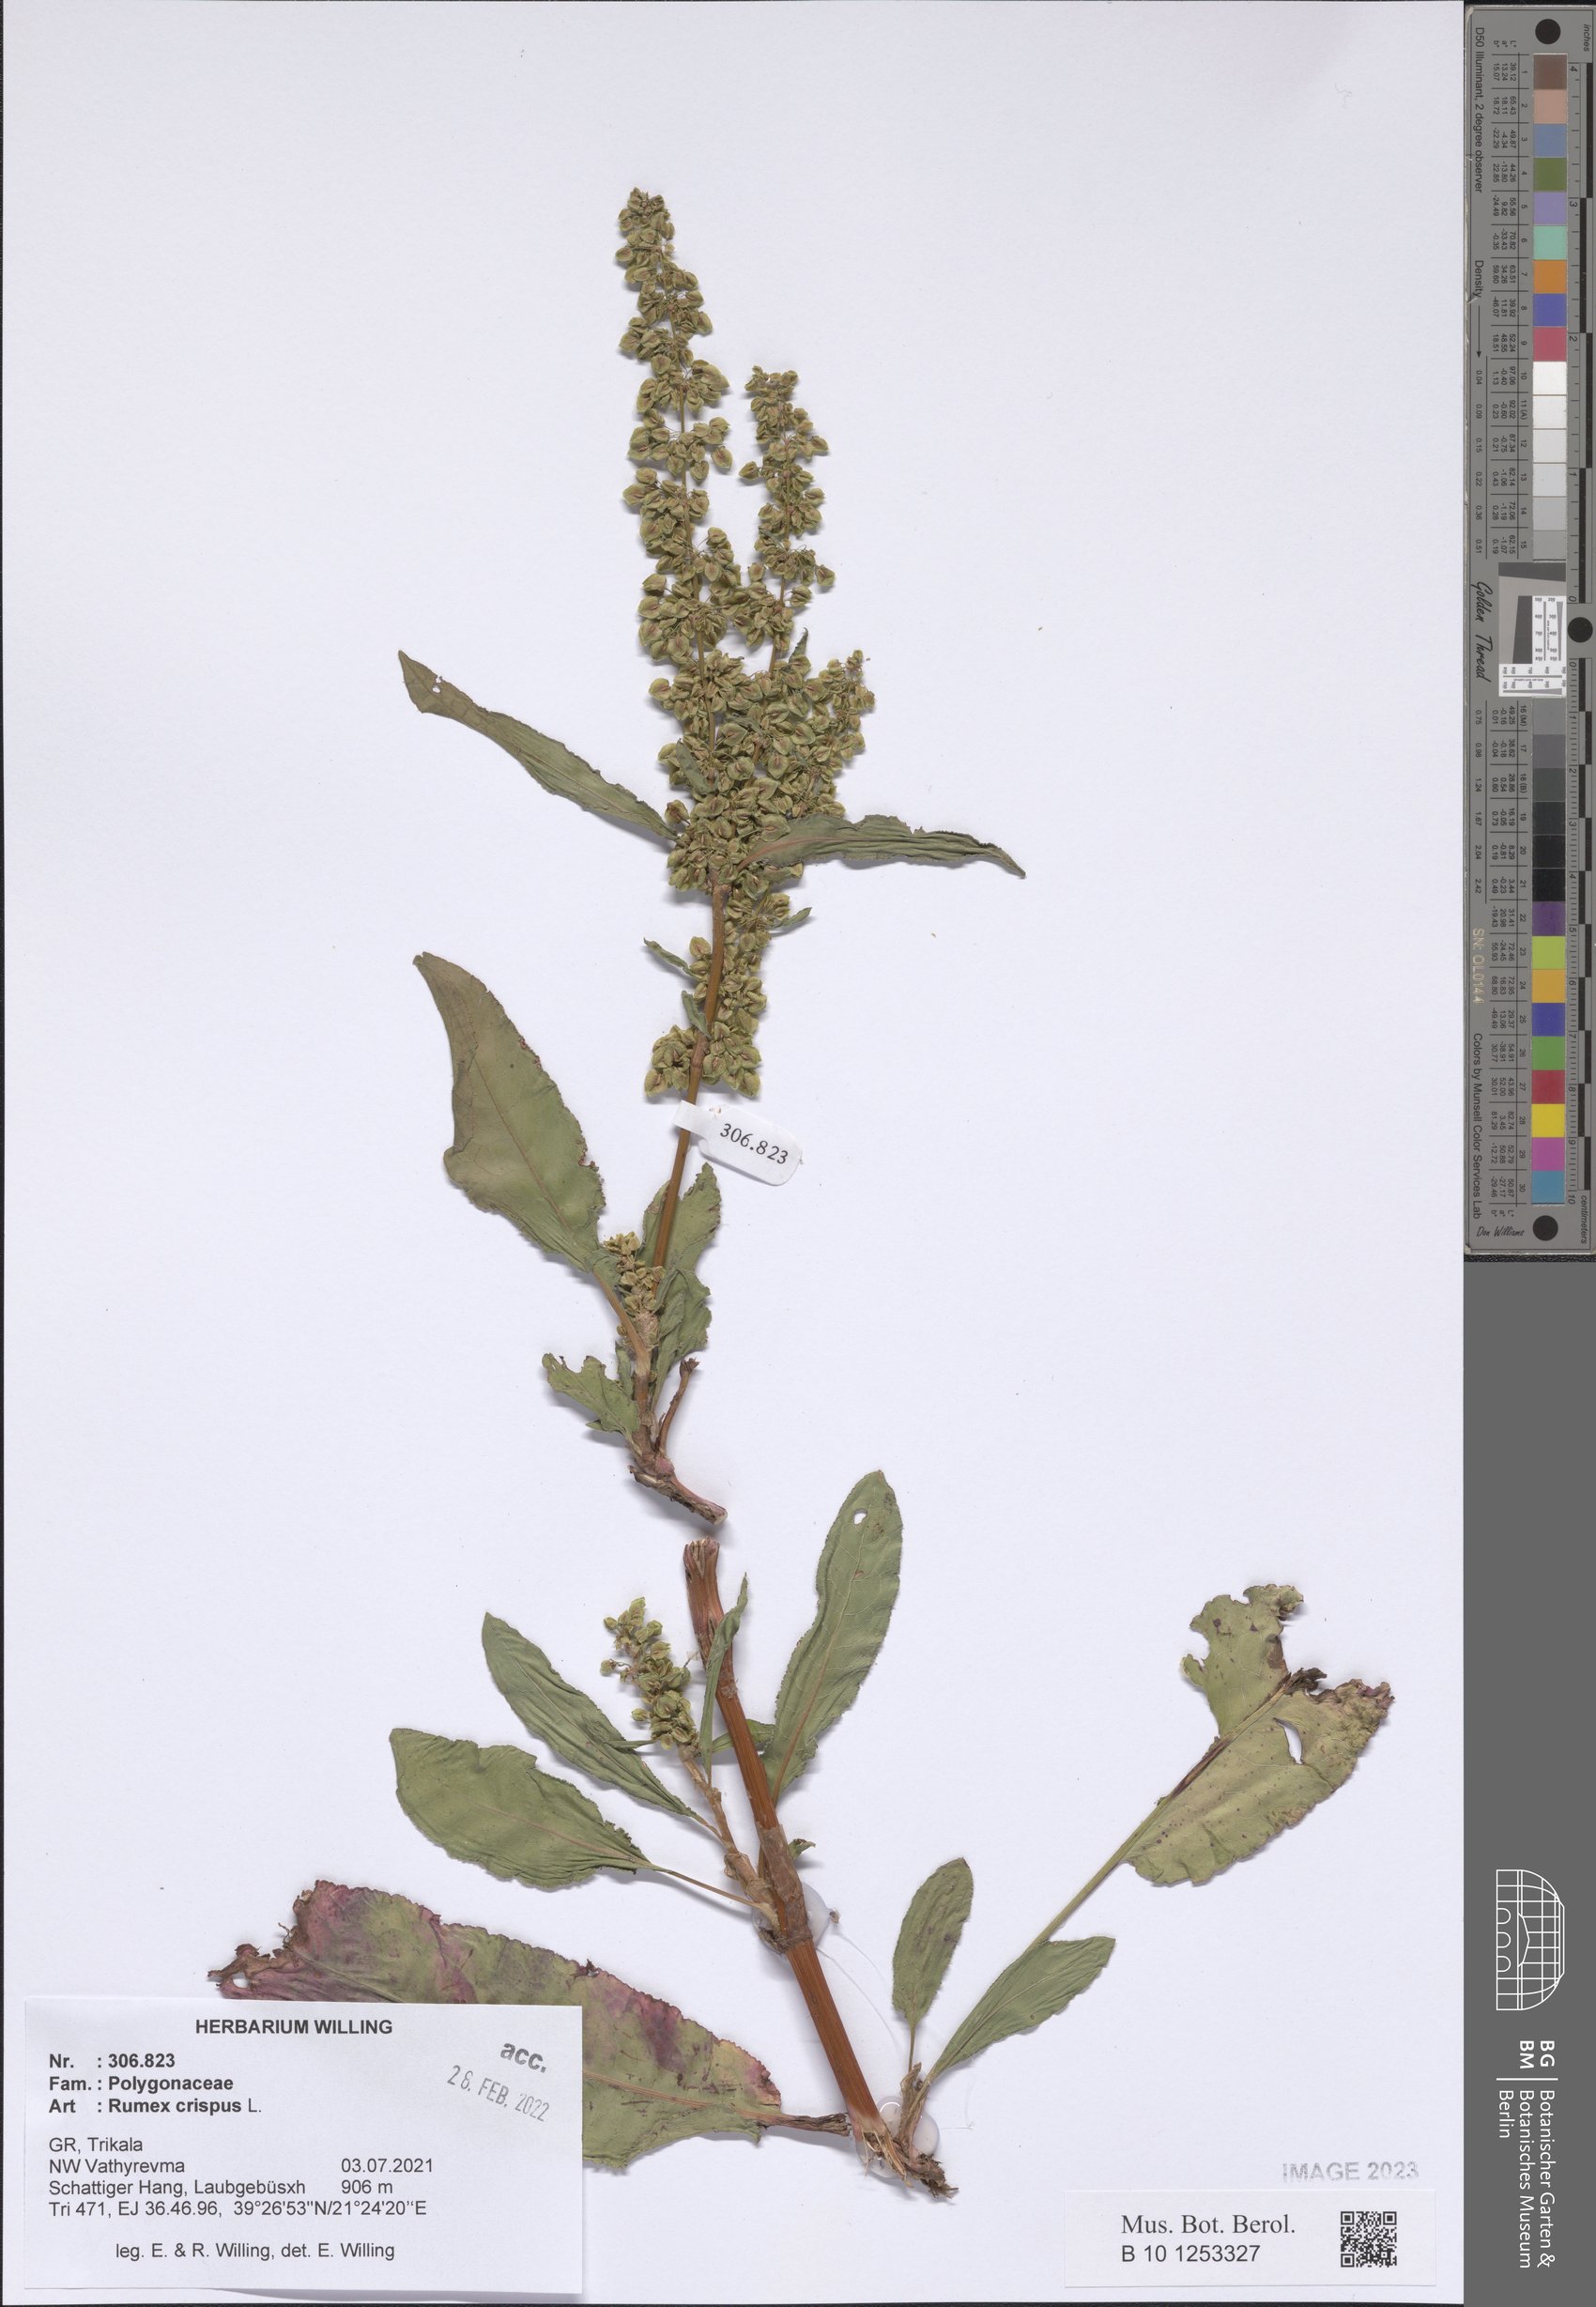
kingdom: Plantae
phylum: Tracheophyta
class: Magnoliopsida
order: Caryophyllales
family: Polygonaceae
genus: Rumex
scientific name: Rumex crispus
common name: Curled dock
